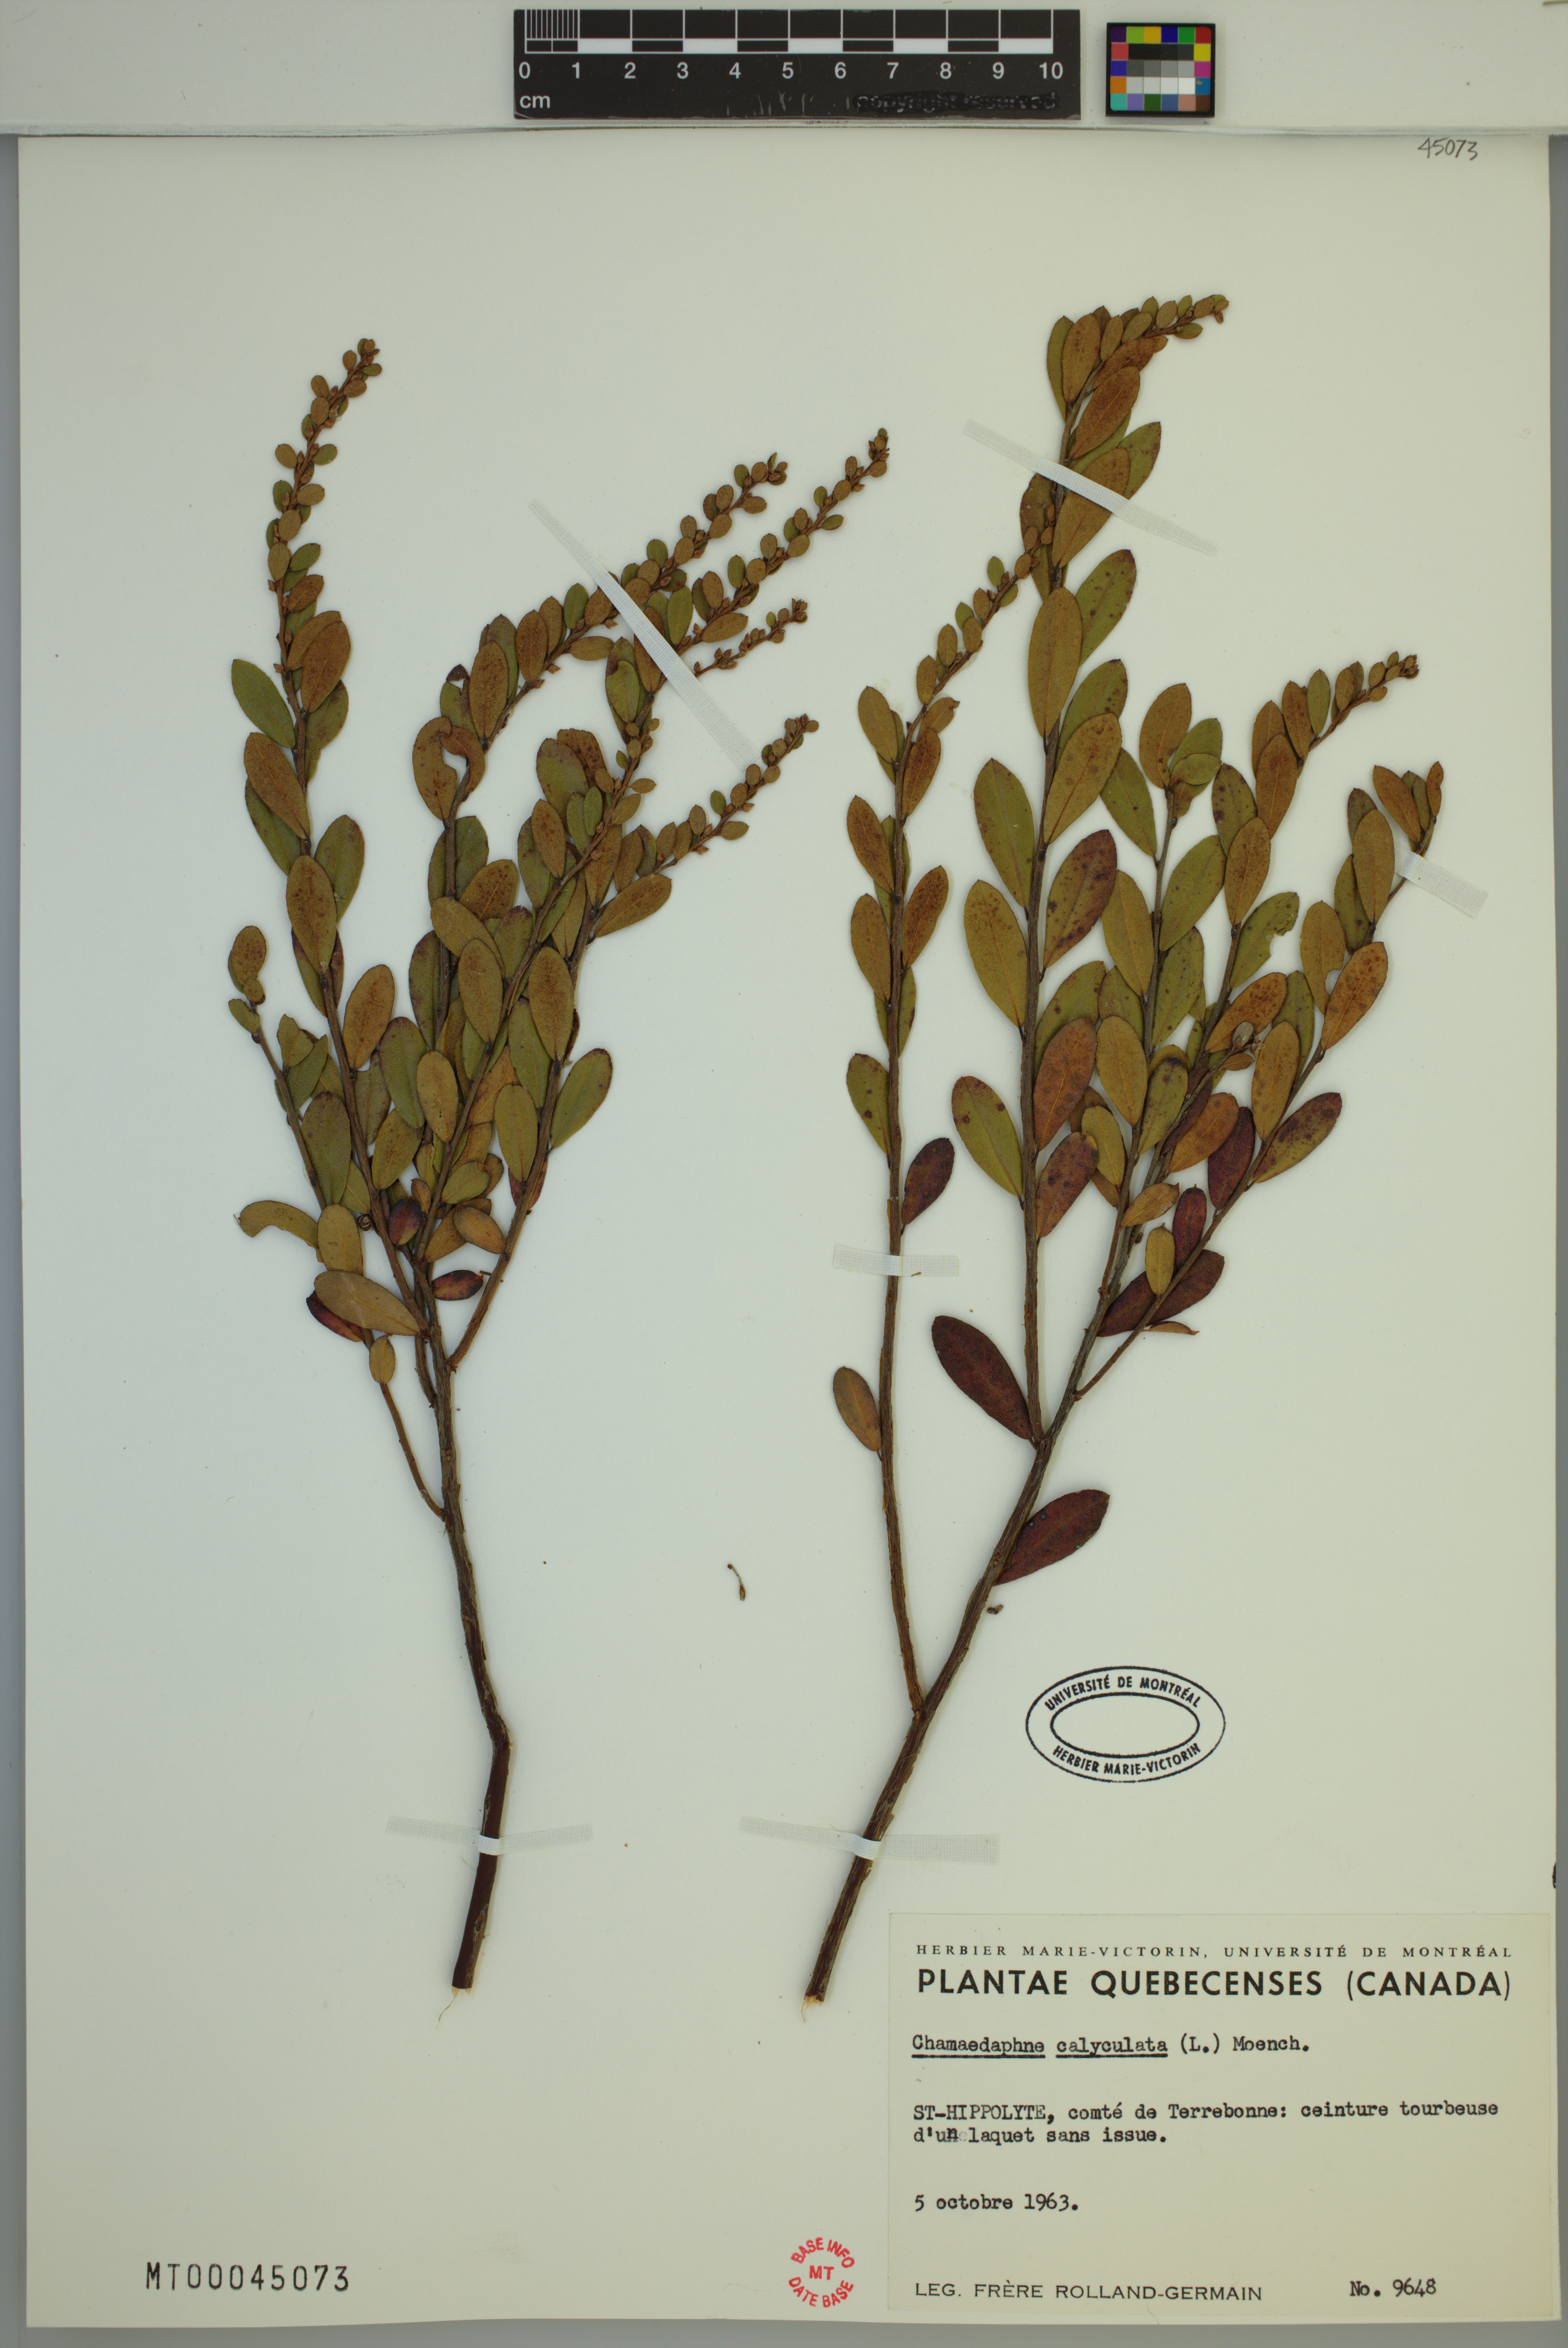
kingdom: Plantae
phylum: Tracheophyta
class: Magnoliopsida
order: Ericales
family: Ericaceae
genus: Chamaedaphne
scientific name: Chamaedaphne calyculata
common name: Leatherleaf
